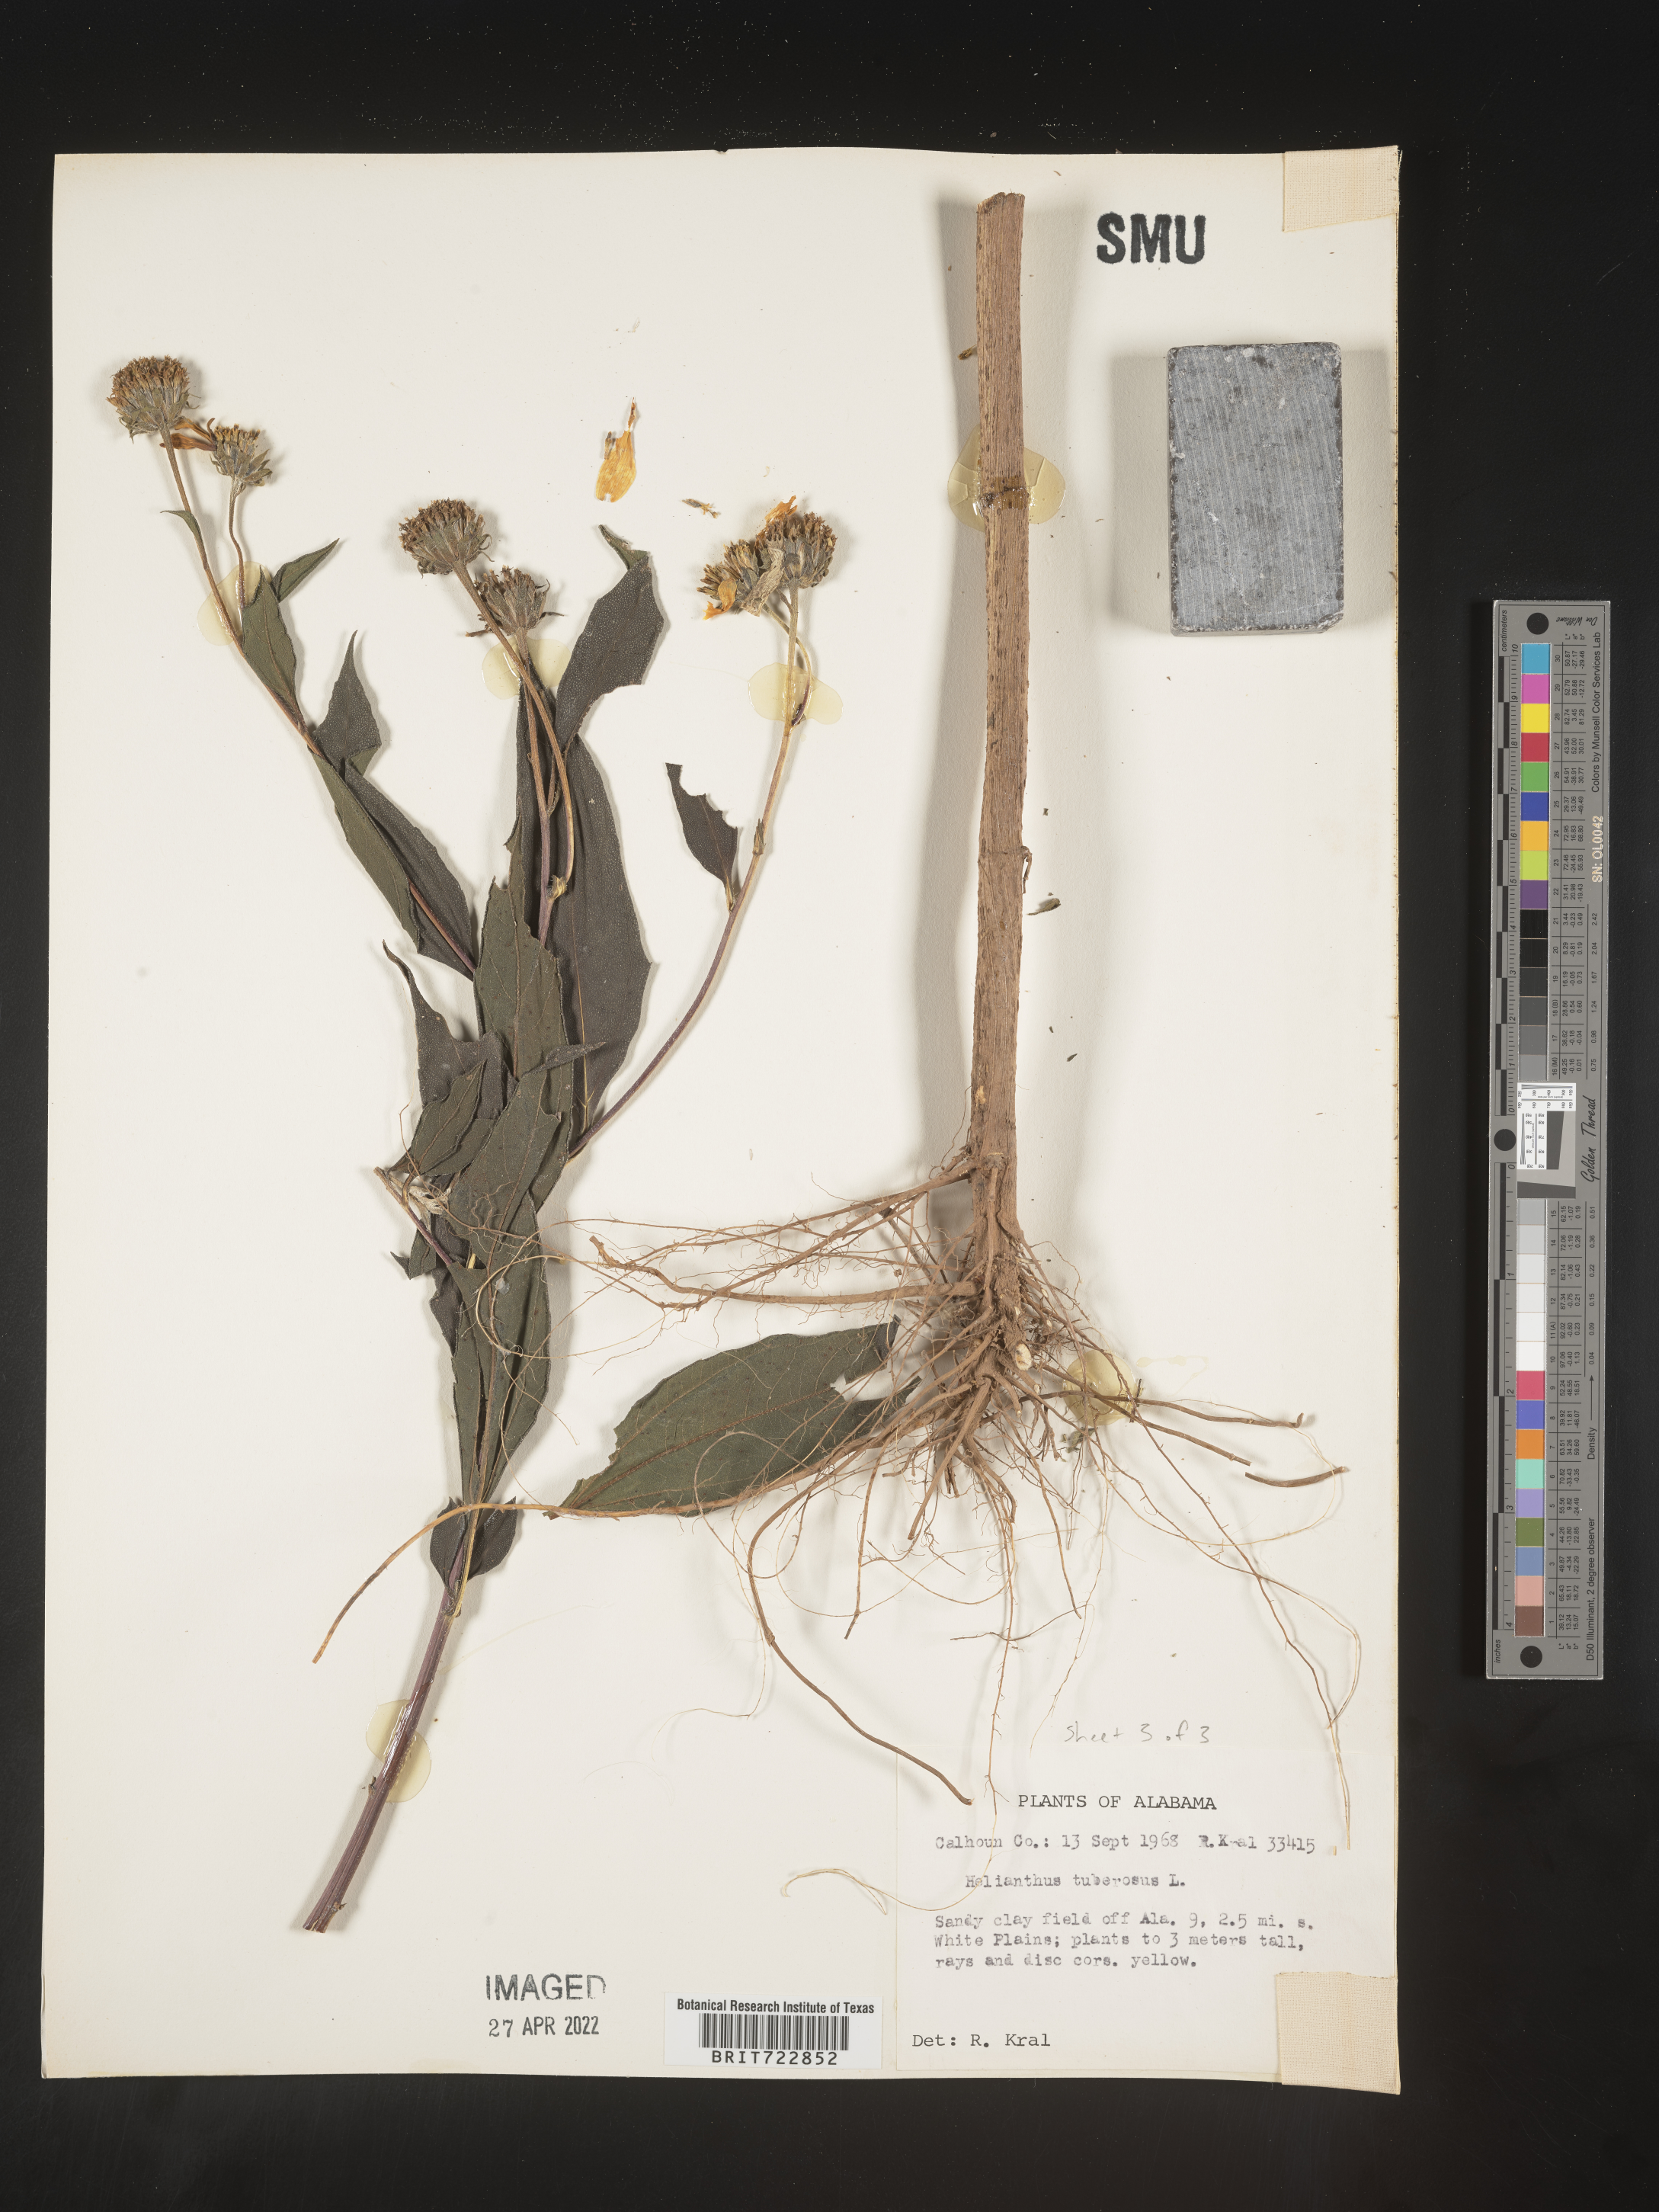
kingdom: Plantae
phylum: Tracheophyta
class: Magnoliopsida
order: Asterales
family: Asteraceae
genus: Helianthus
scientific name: Helianthus tuberosus
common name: Jerusalem artichoke
